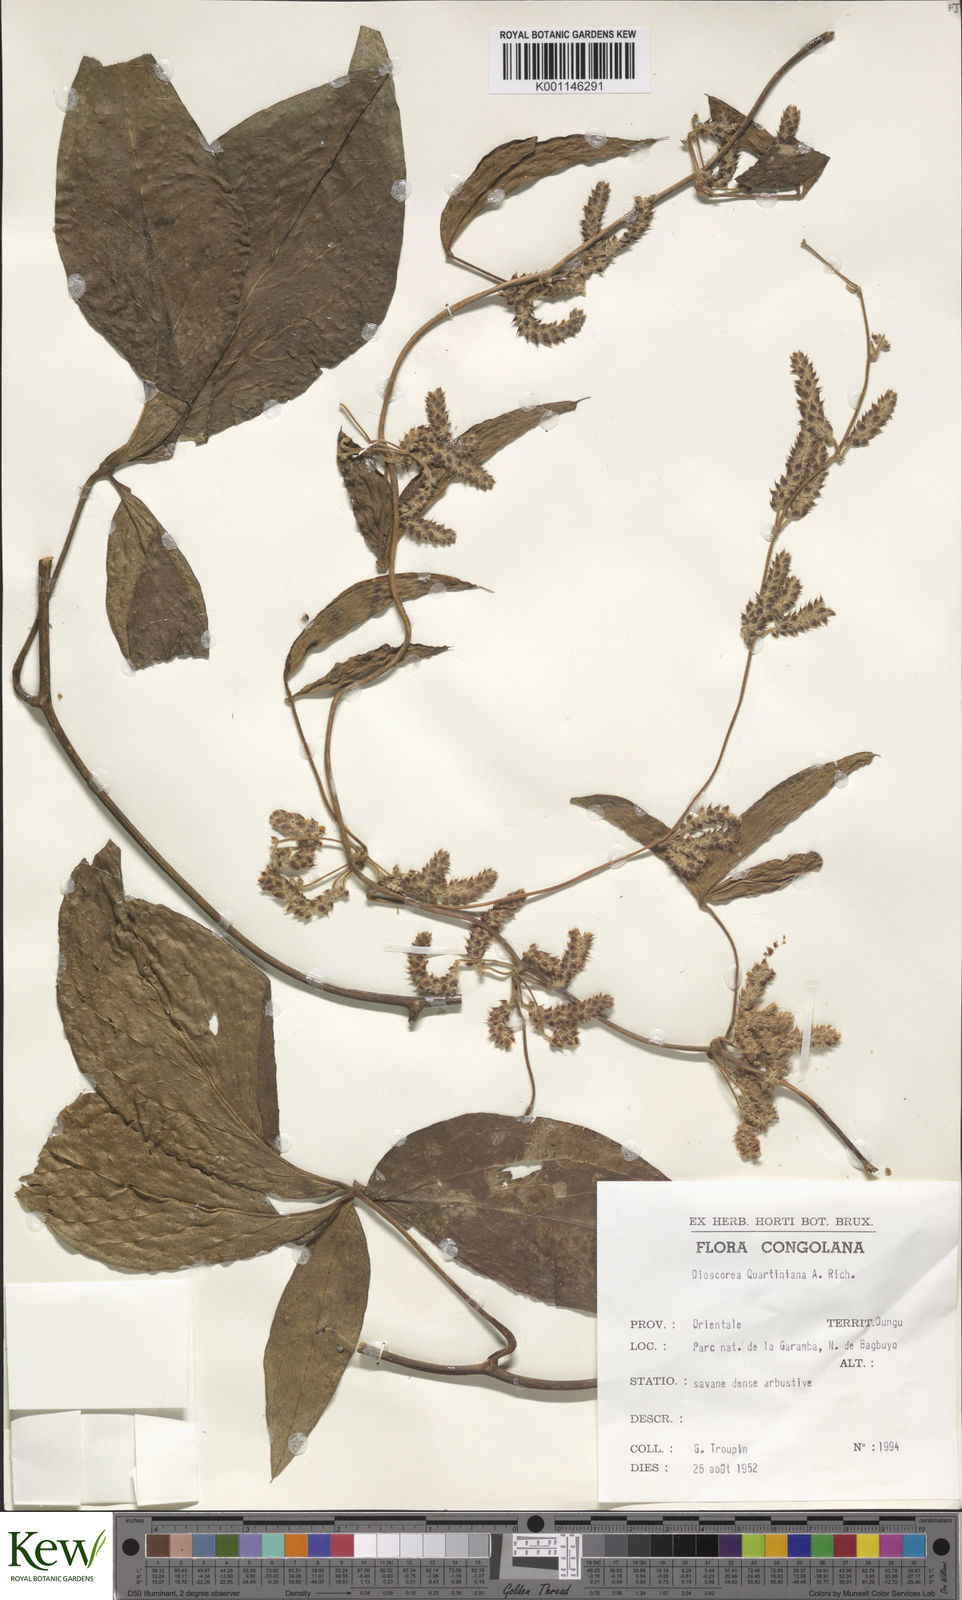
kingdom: Plantae
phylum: Tracheophyta
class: Liliopsida
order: Dioscoreales
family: Dioscoreaceae
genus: Dioscorea
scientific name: Dioscorea quartiniana
